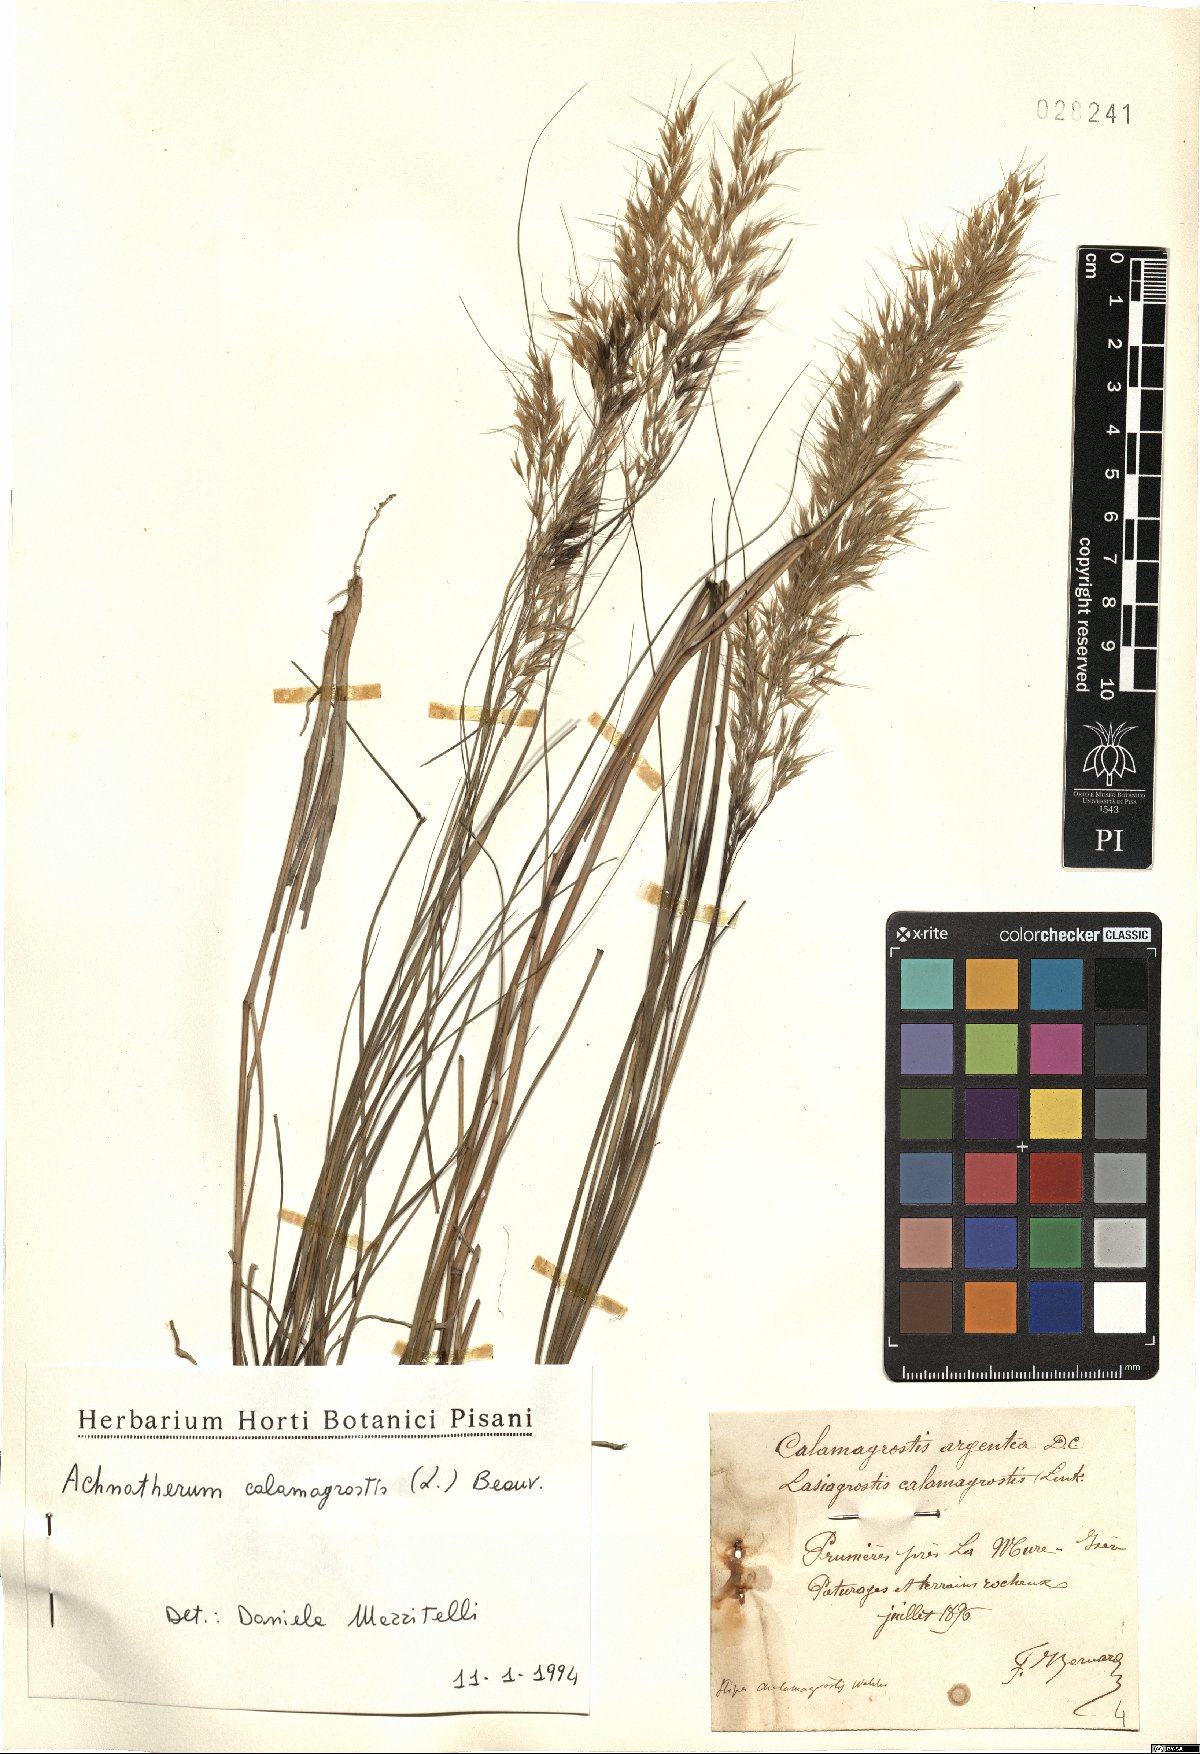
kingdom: Plantae
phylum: Tracheophyta
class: Liliopsida
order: Poales
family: Poaceae
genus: Achnatherum
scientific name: Achnatherum calamagrostis
